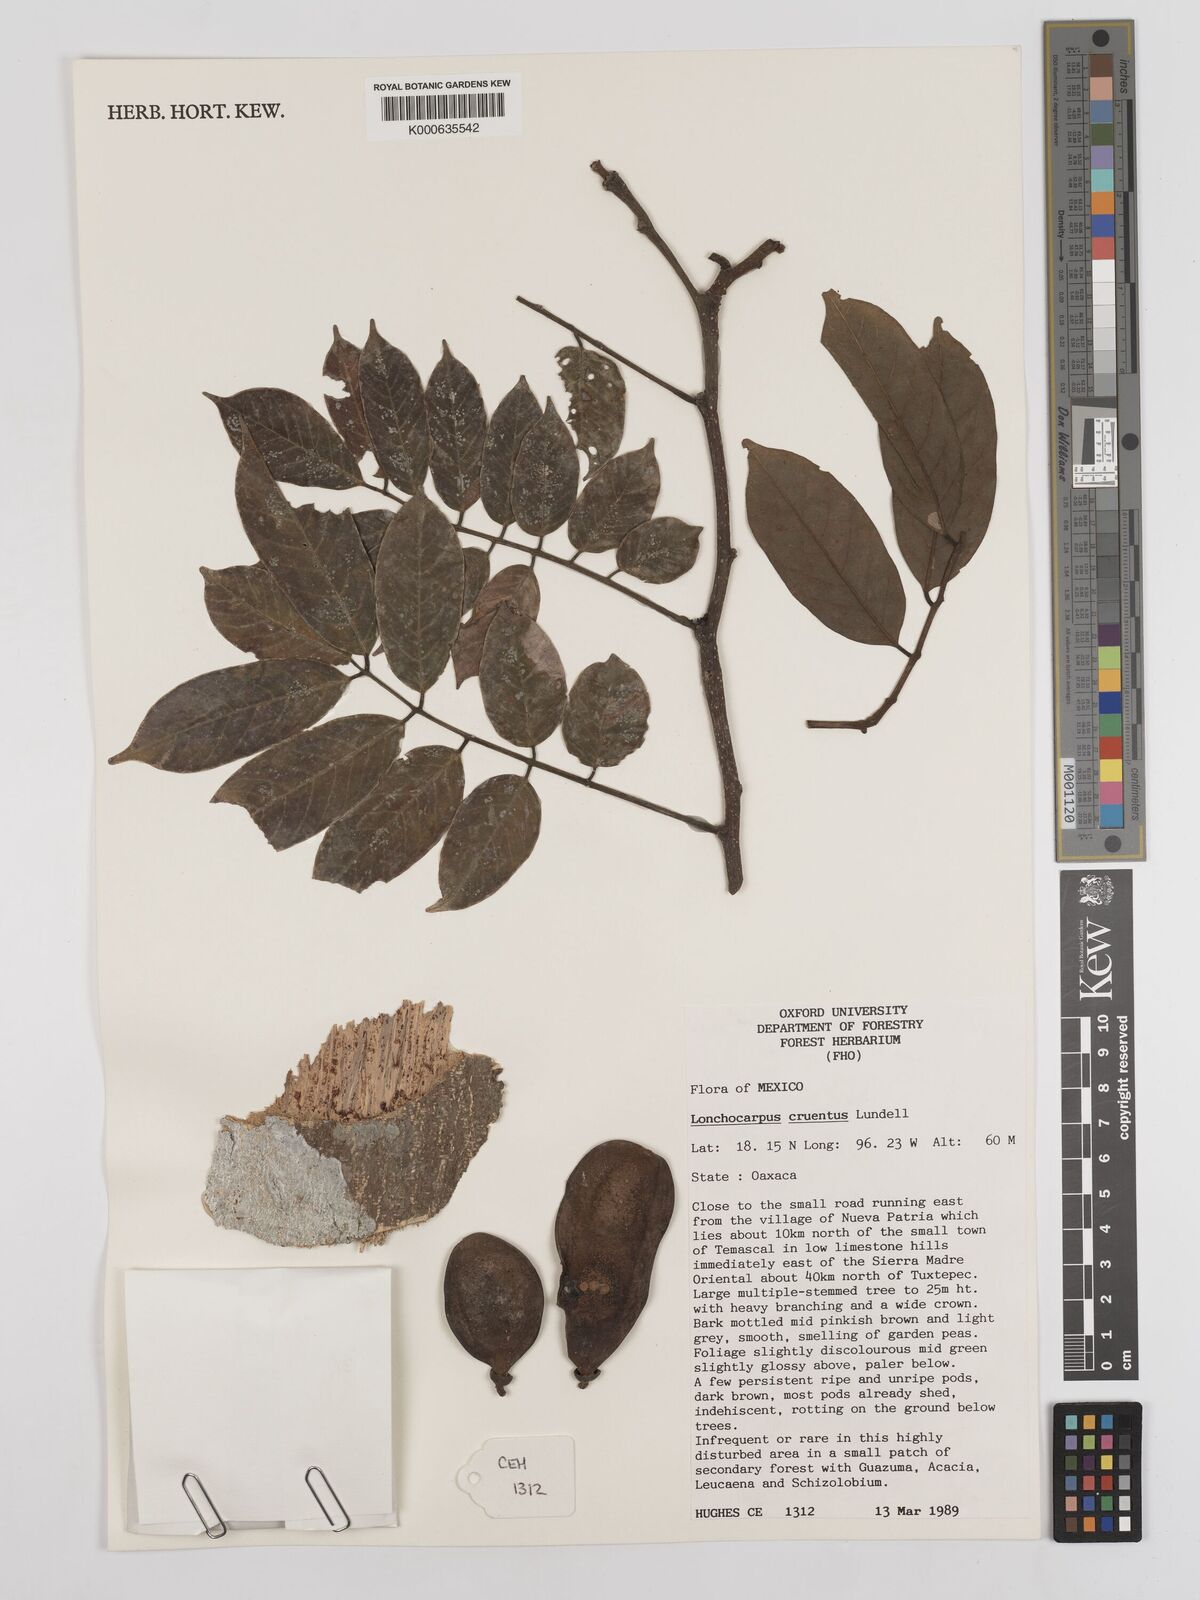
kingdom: Plantae
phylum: Tracheophyta
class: Magnoliopsida
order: Fabales
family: Fabaceae
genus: Lonchocarpus
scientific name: Lonchocarpus cruentus
